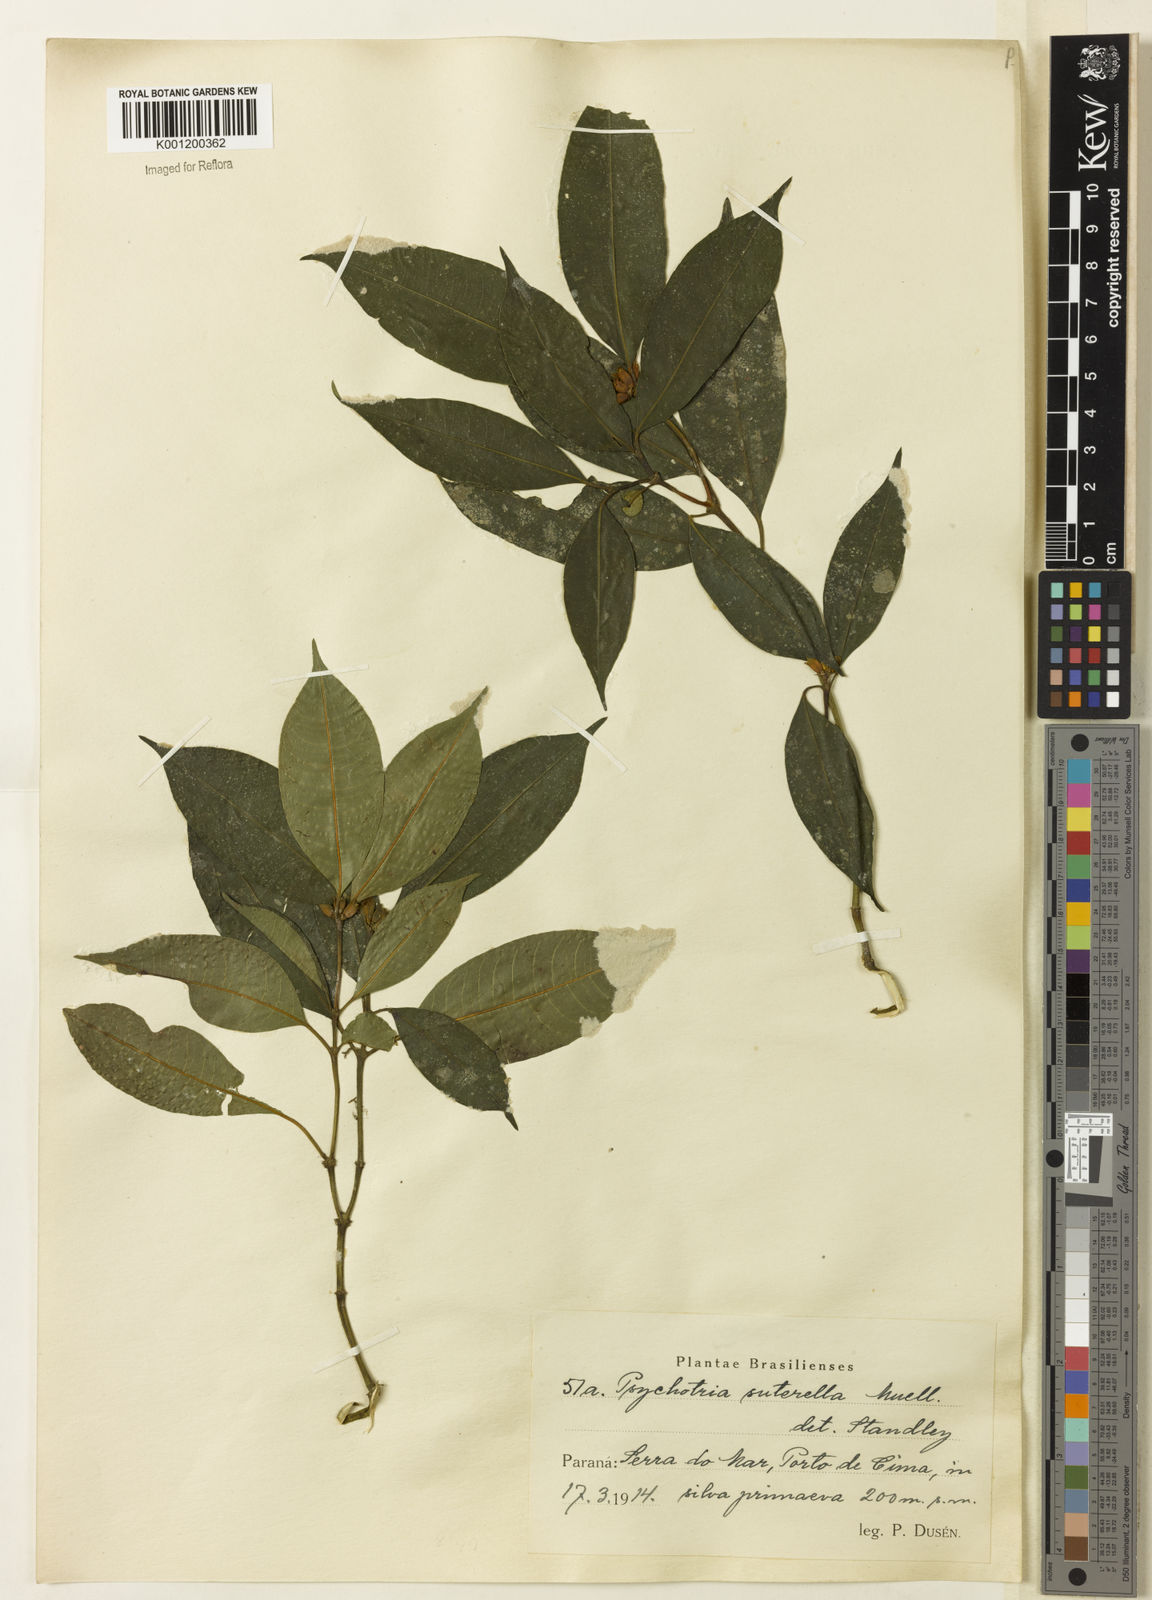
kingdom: Plantae
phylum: Tracheophyta
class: Magnoliopsida
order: Gentianales
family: Rubiaceae
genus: Psychotria
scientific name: Psychotria
